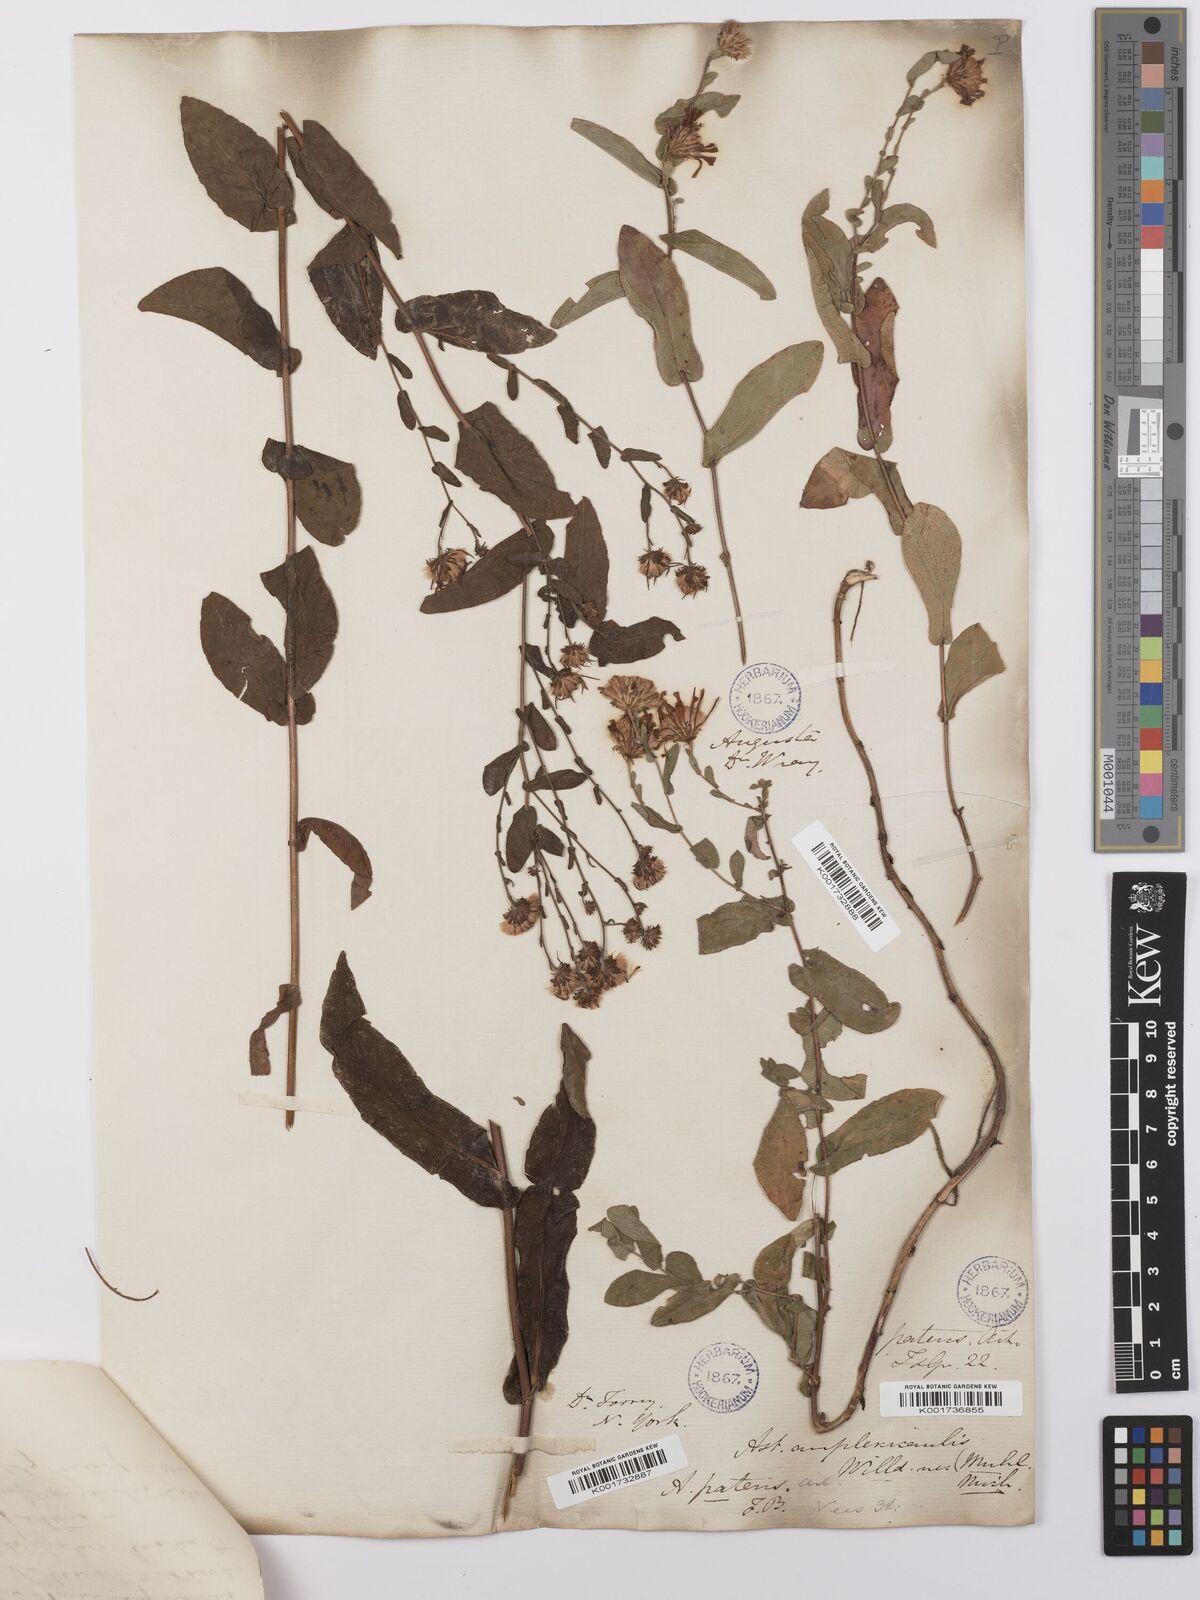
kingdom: Plantae
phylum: Tracheophyta
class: Magnoliopsida
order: Asterales
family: Asteraceae
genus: Symphyotrichum
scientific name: Symphyotrichum patens
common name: Late purple aster
